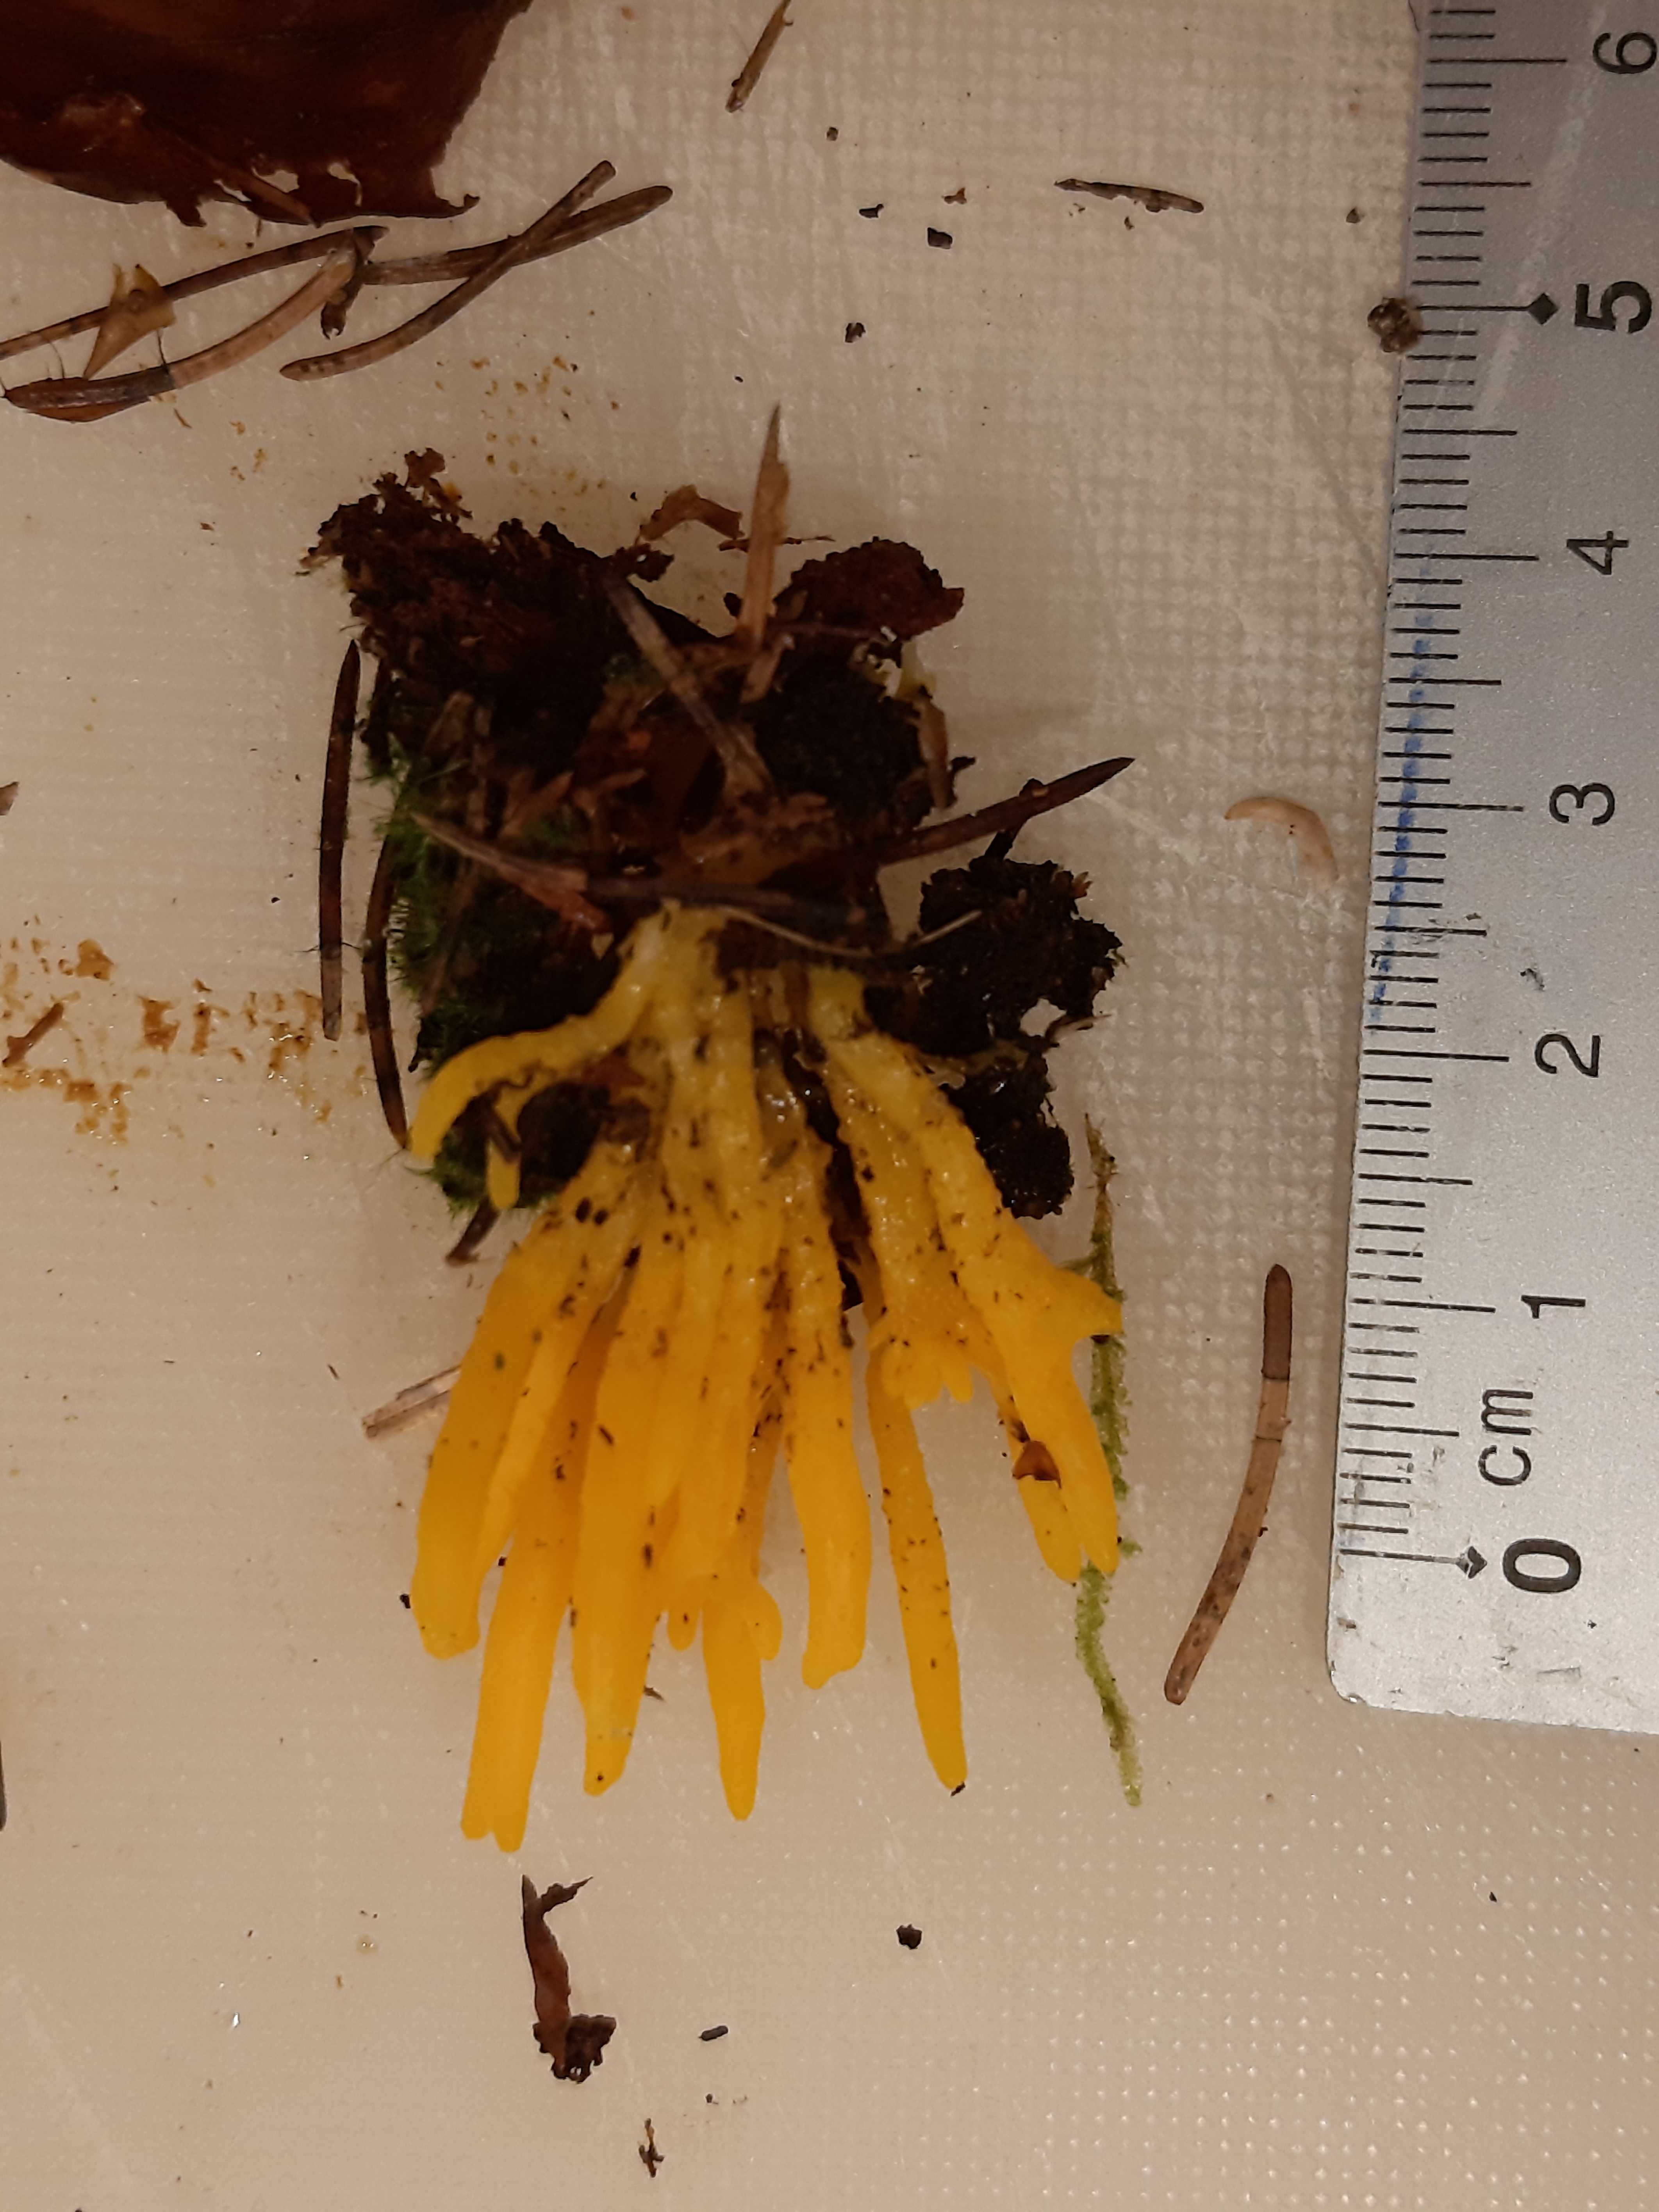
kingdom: Fungi
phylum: Basidiomycota
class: Dacrymycetes
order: Dacrymycetales
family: Dacrymycetaceae
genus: Calocera
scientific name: Calocera viscosa
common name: almindelig guldgaffel
